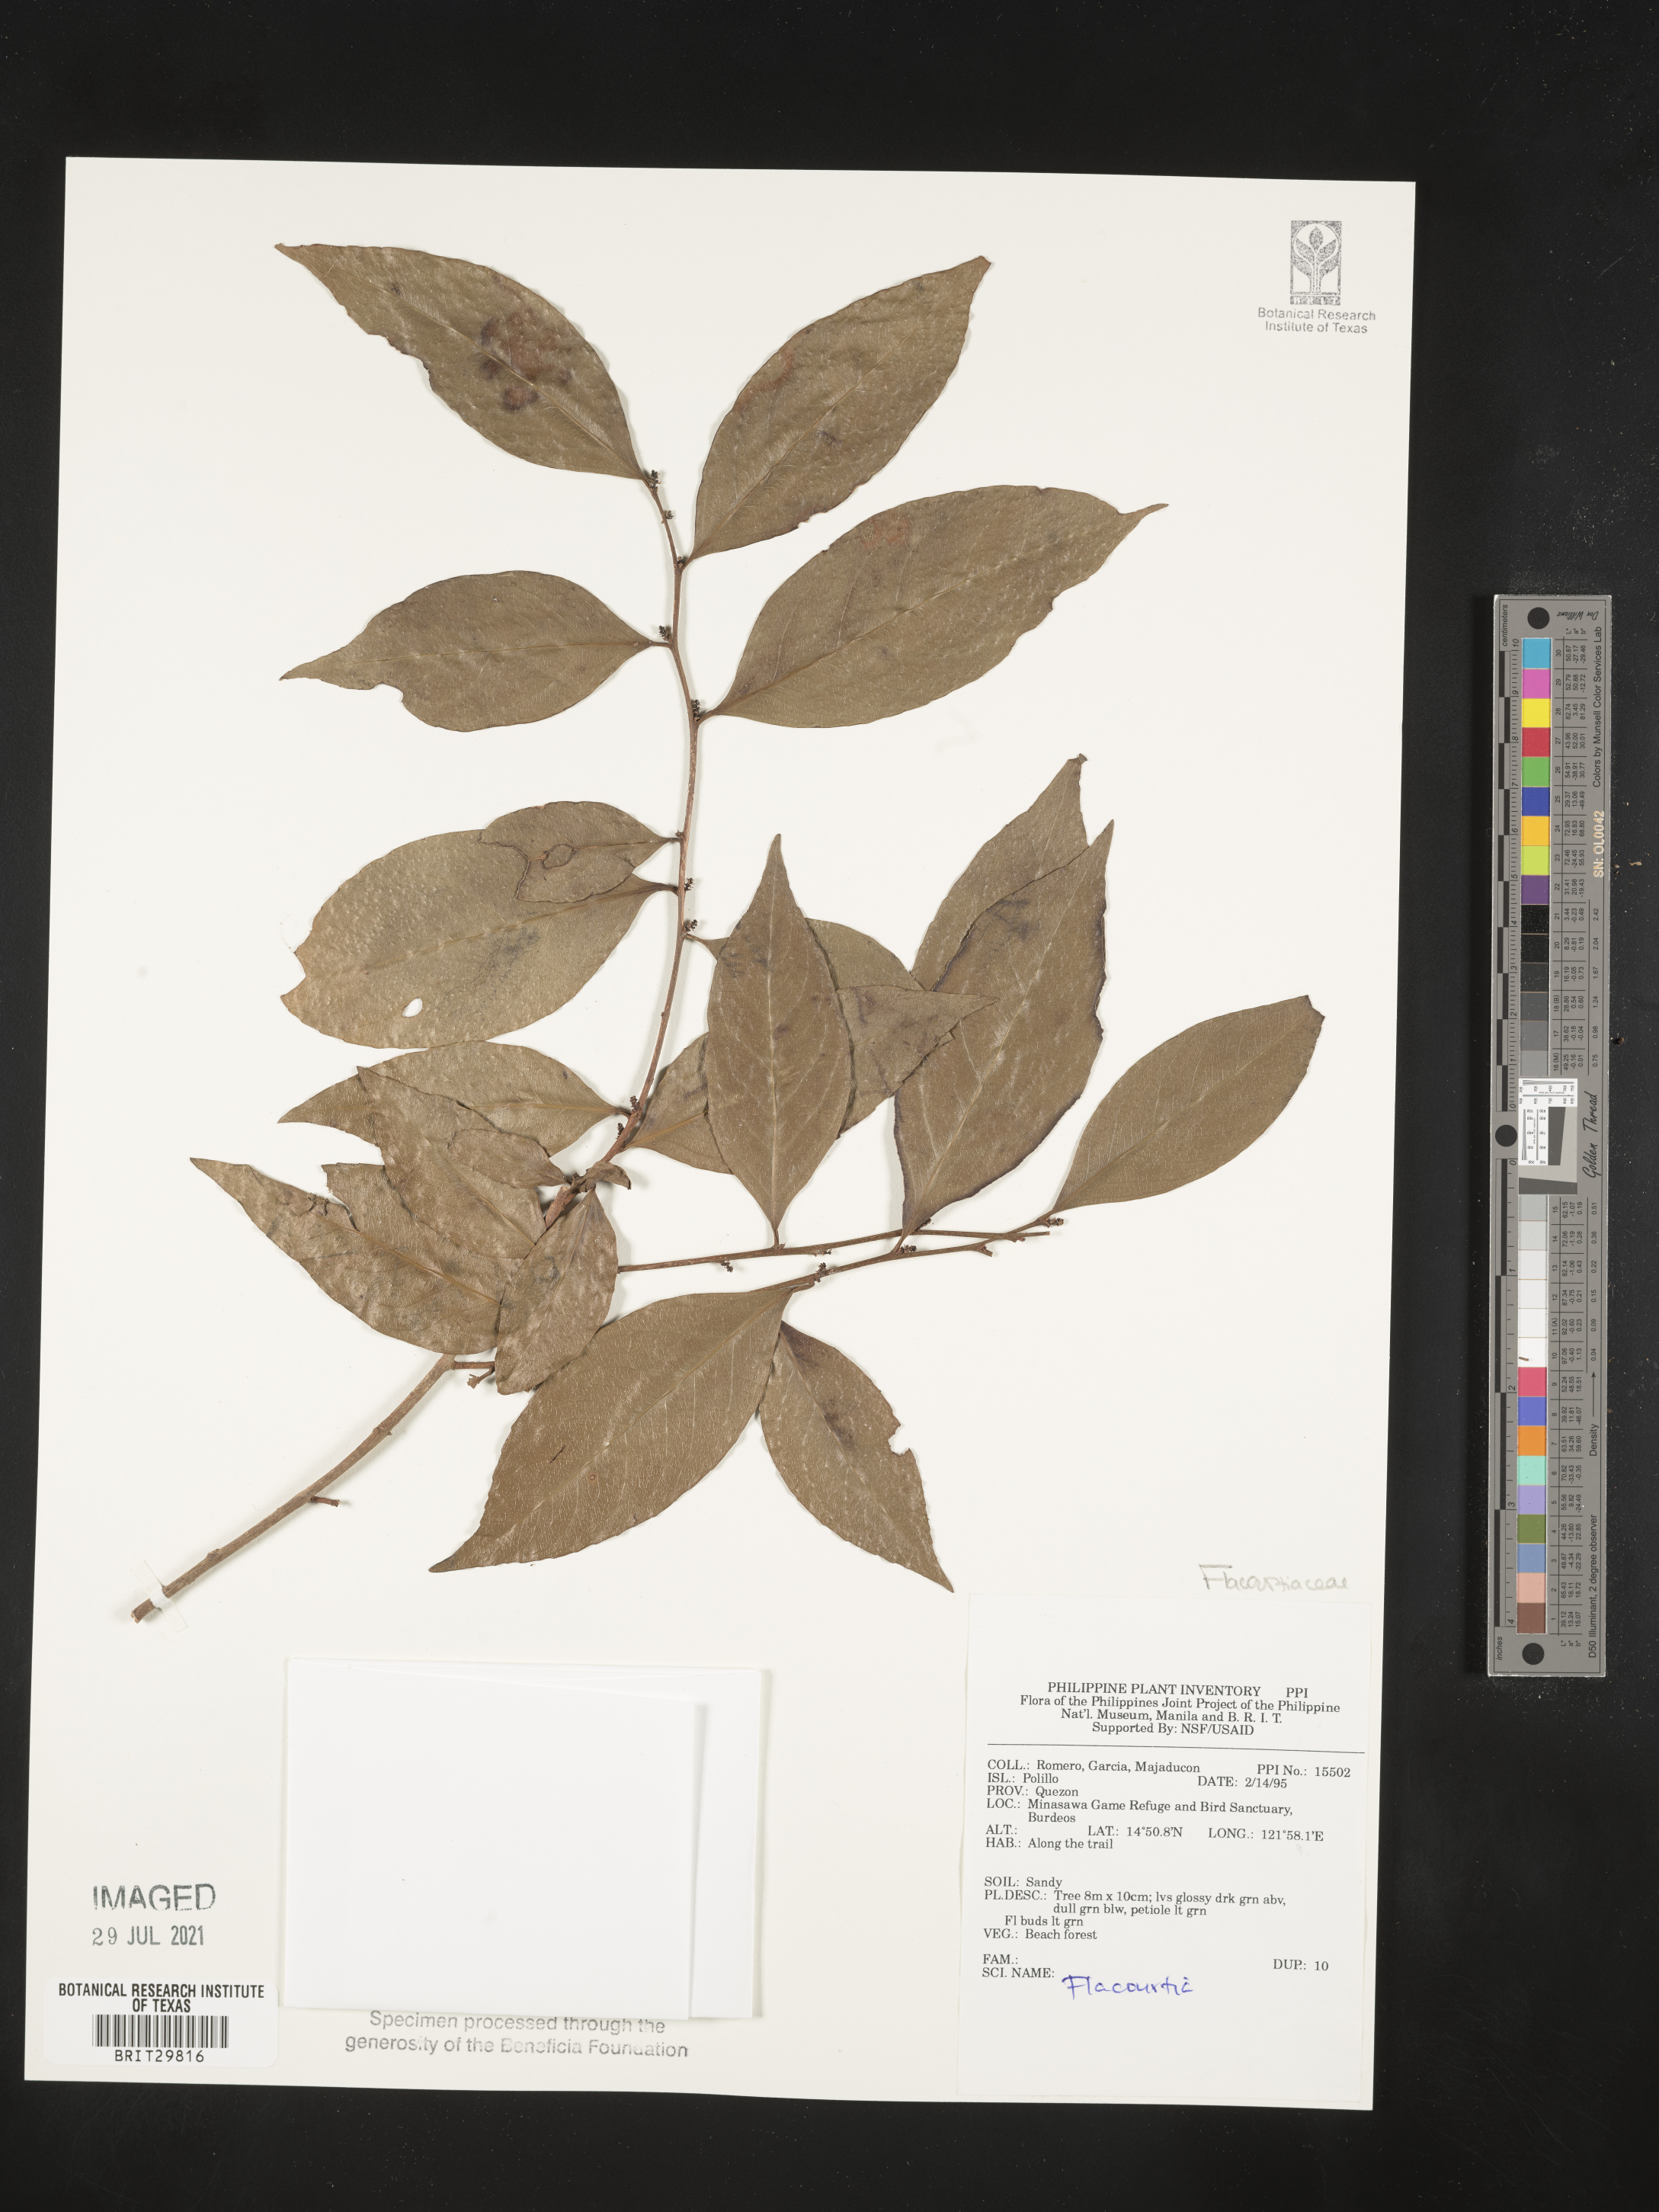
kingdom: Plantae
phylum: Tracheophyta
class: Magnoliopsida
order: Malpighiales
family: Salicaceae
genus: Flacourtia
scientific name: Flacourtia
